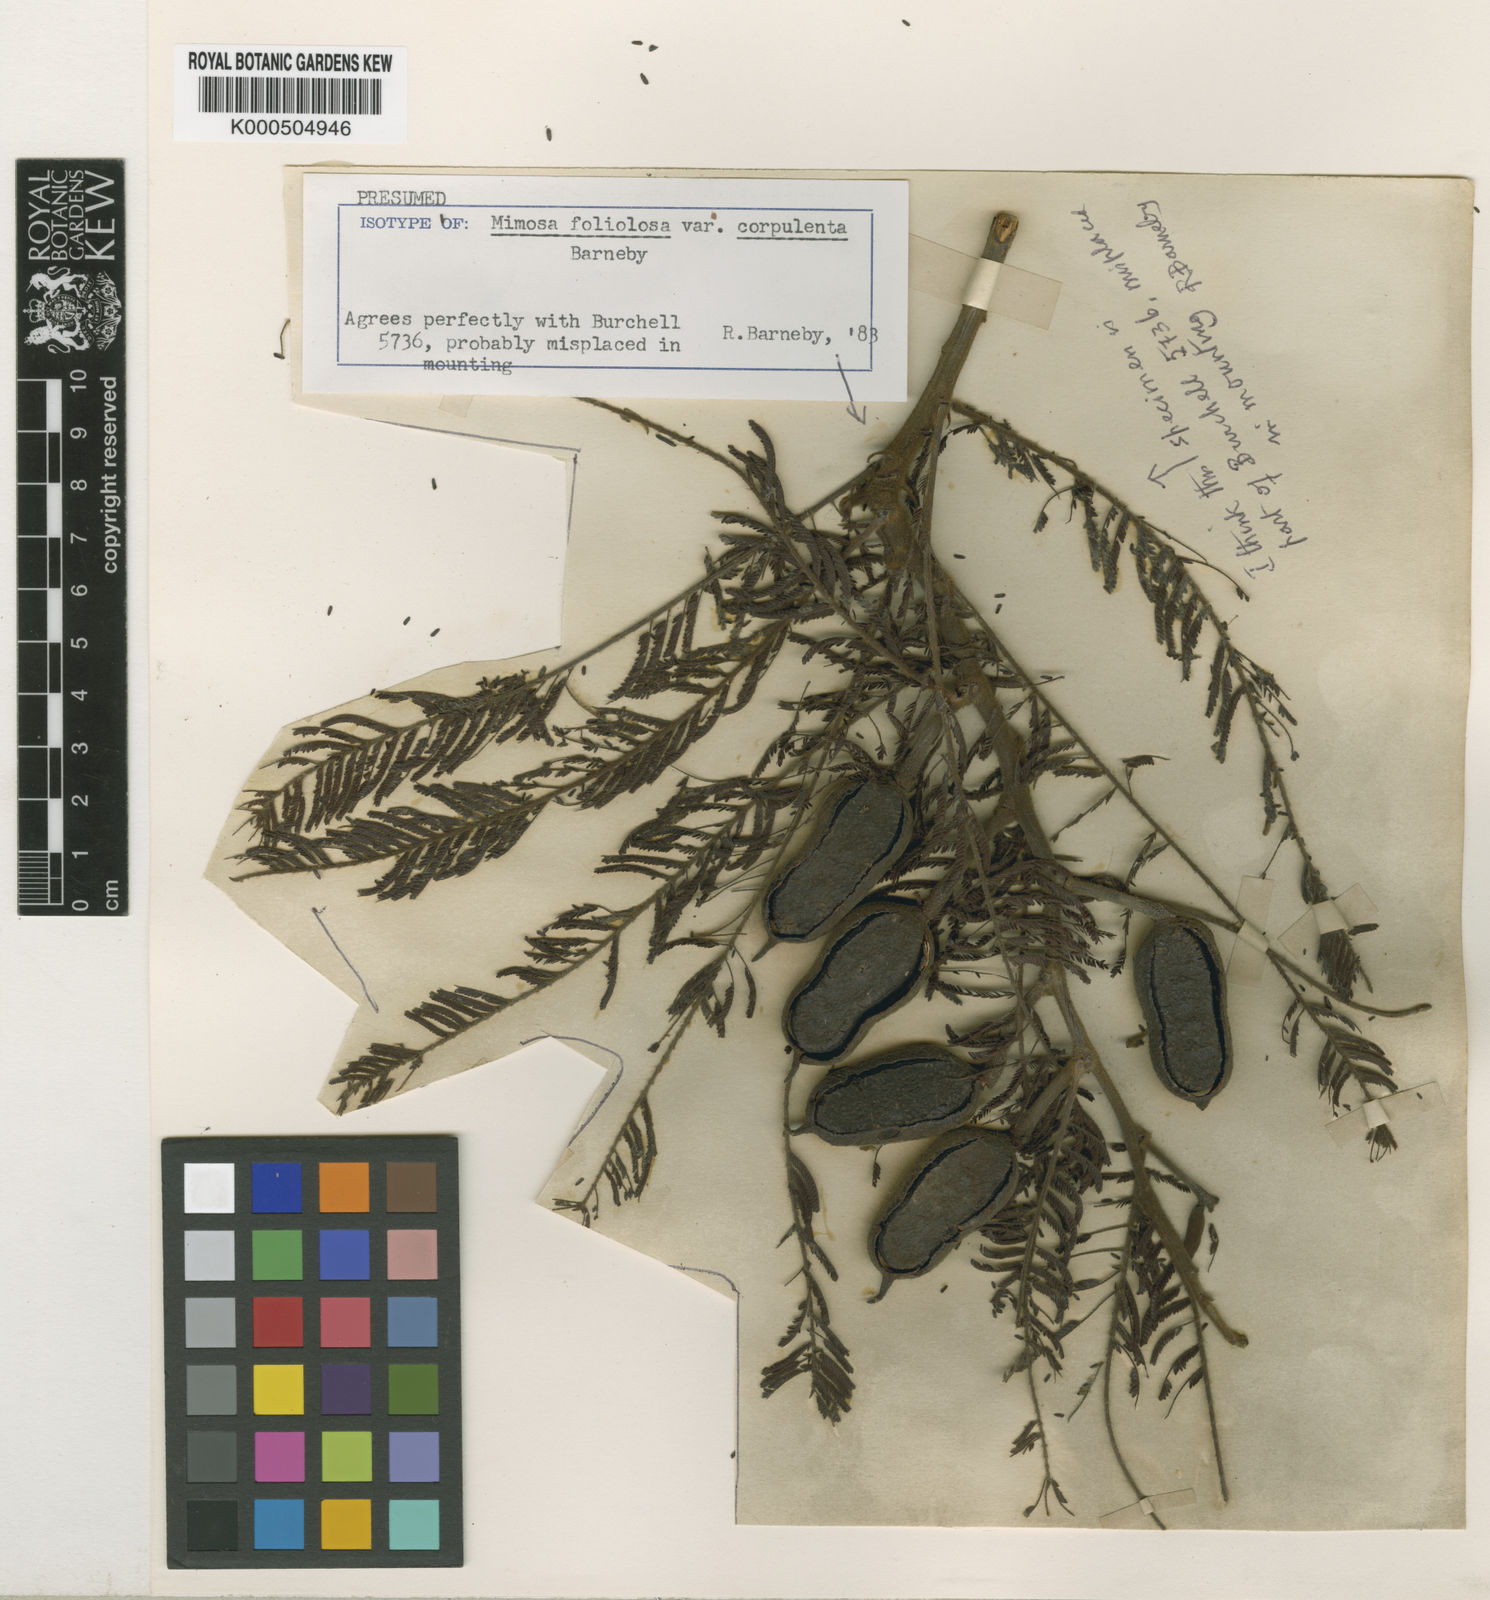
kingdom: Plantae
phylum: Tracheophyta
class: Magnoliopsida
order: Fabales
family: Fabaceae
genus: Mimosa
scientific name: Mimosa
